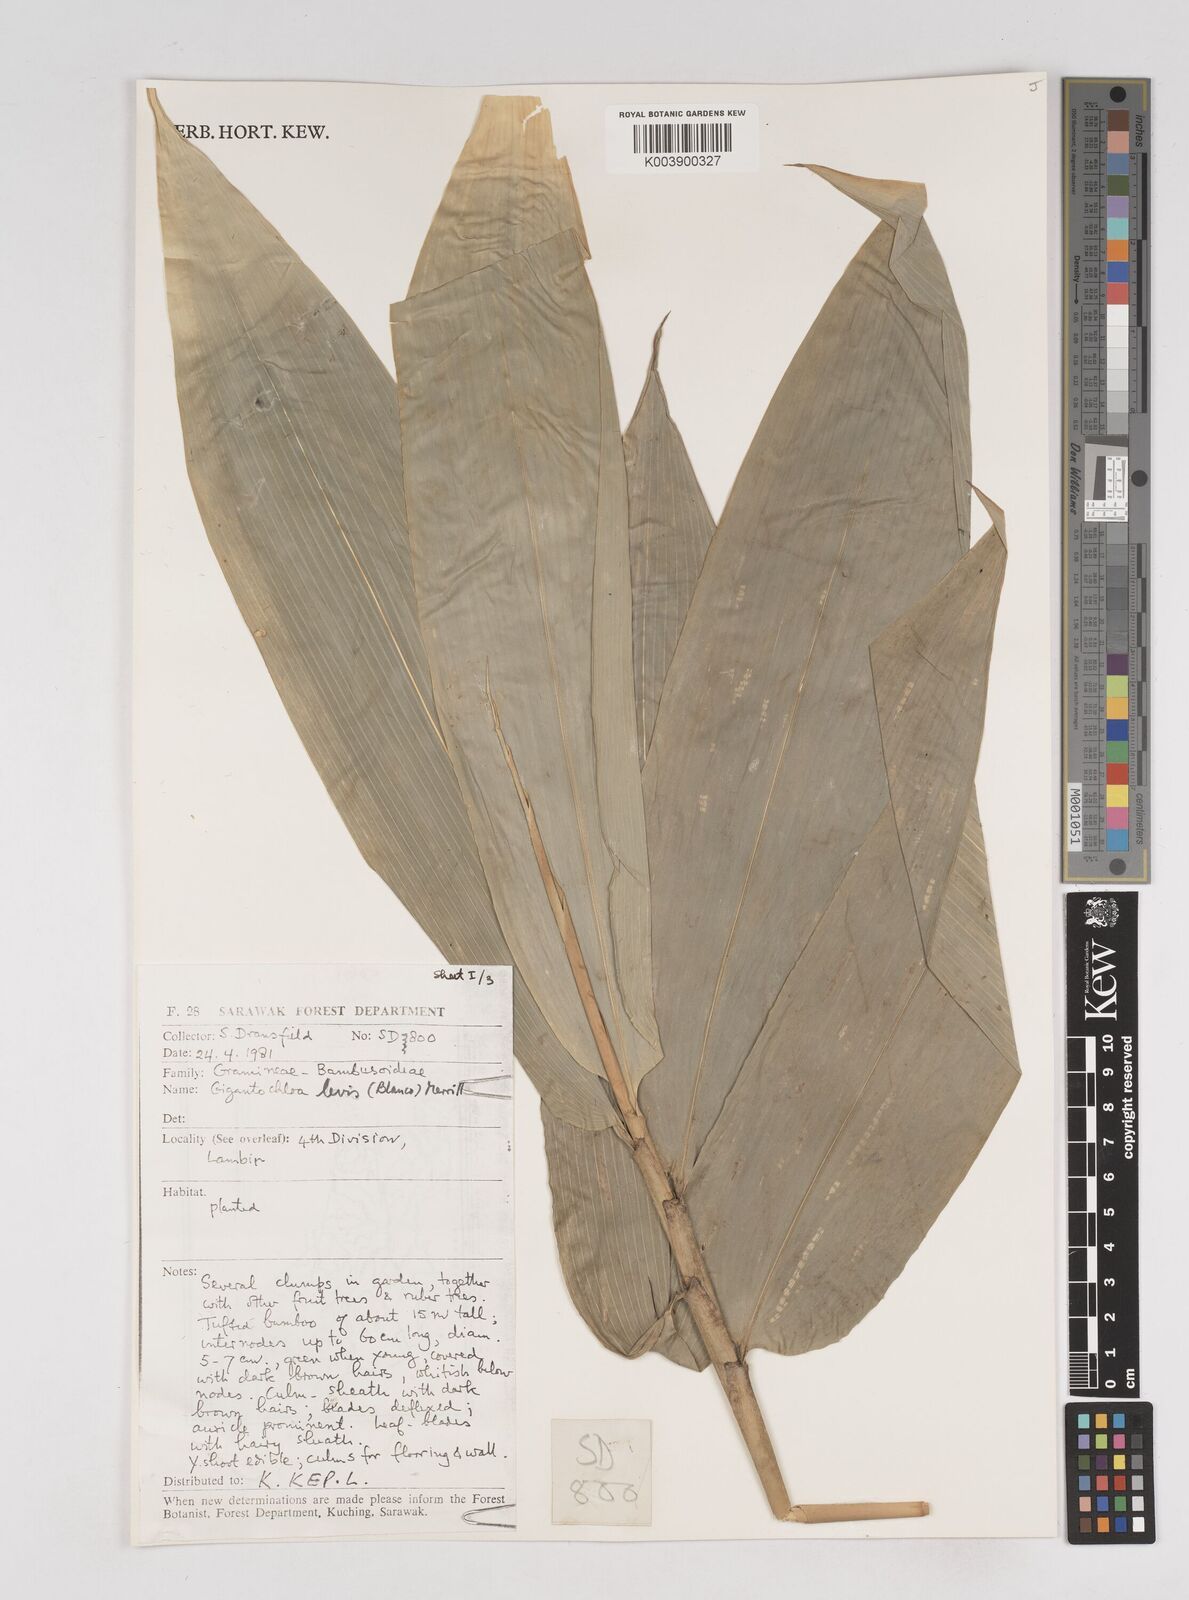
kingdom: Plantae
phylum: Tracheophyta
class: Liliopsida
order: Poales
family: Poaceae
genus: Gigantochloa
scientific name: Gigantochloa levis
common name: Smooth-shoot gigantochloa
